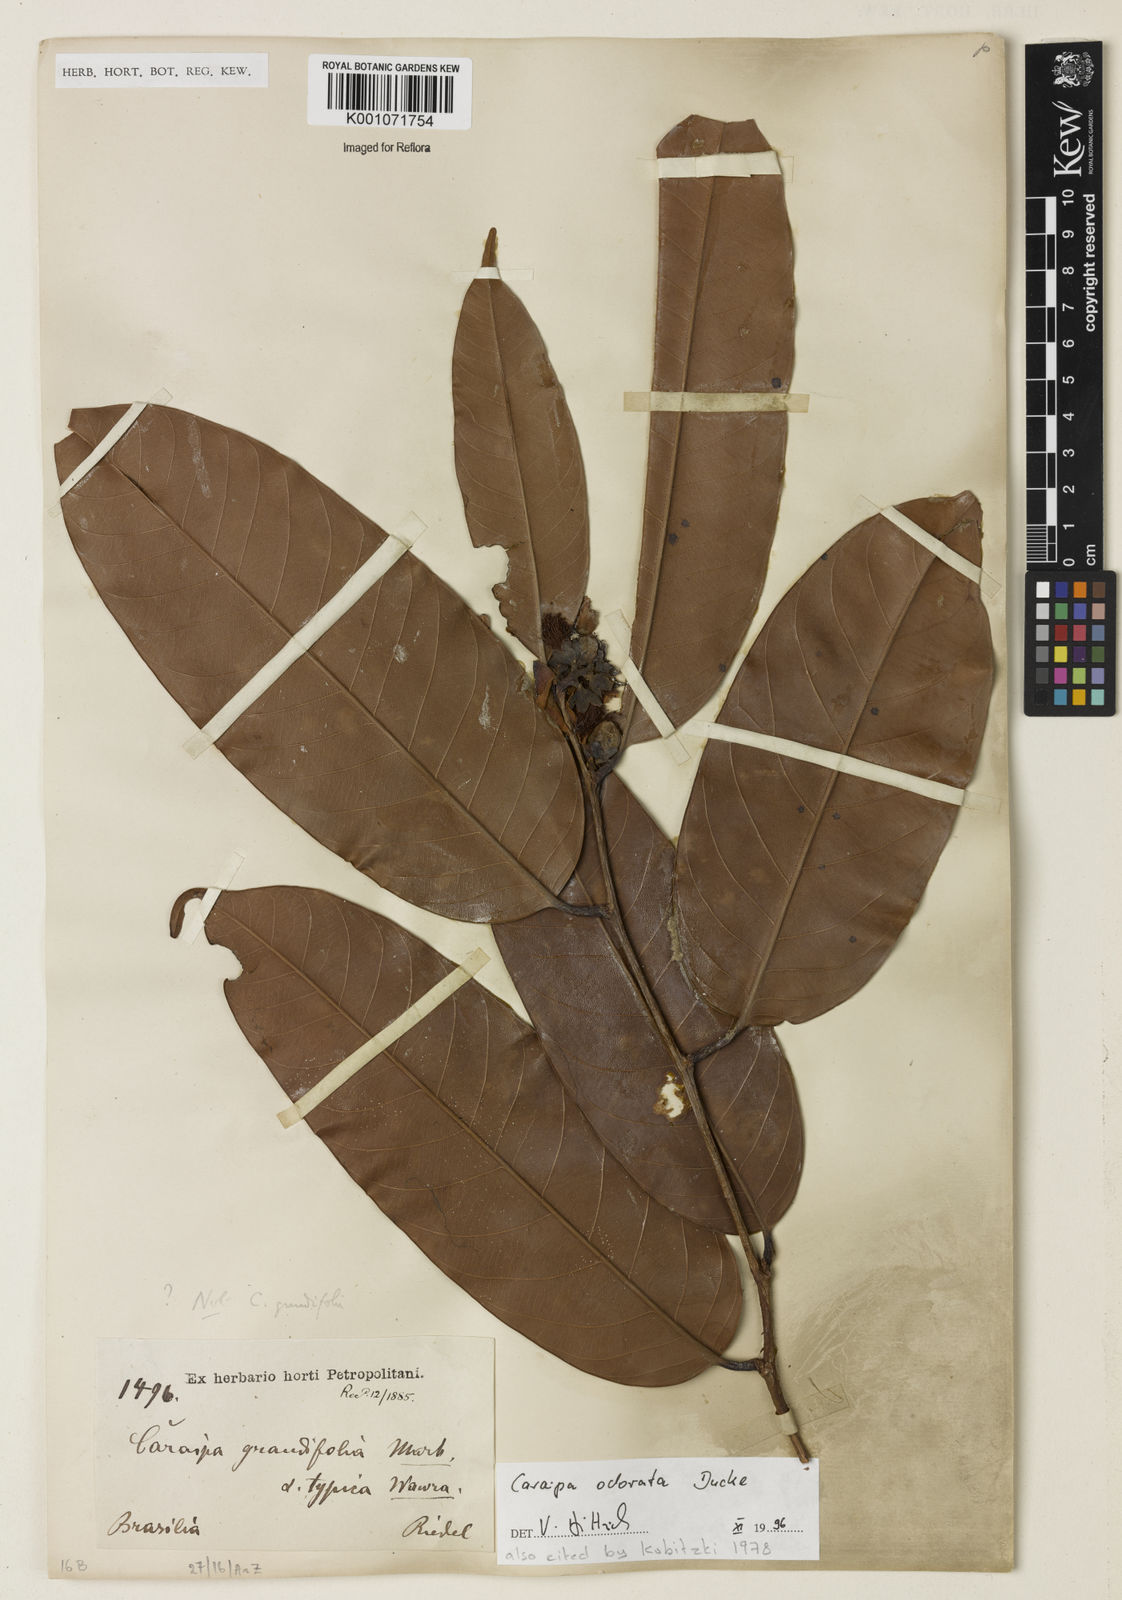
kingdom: Plantae
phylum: Tracheophyta
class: Magnoliopsida
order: Malpighiales
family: Calophyllaceae
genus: Caraipa
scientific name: Caraipa odorata
